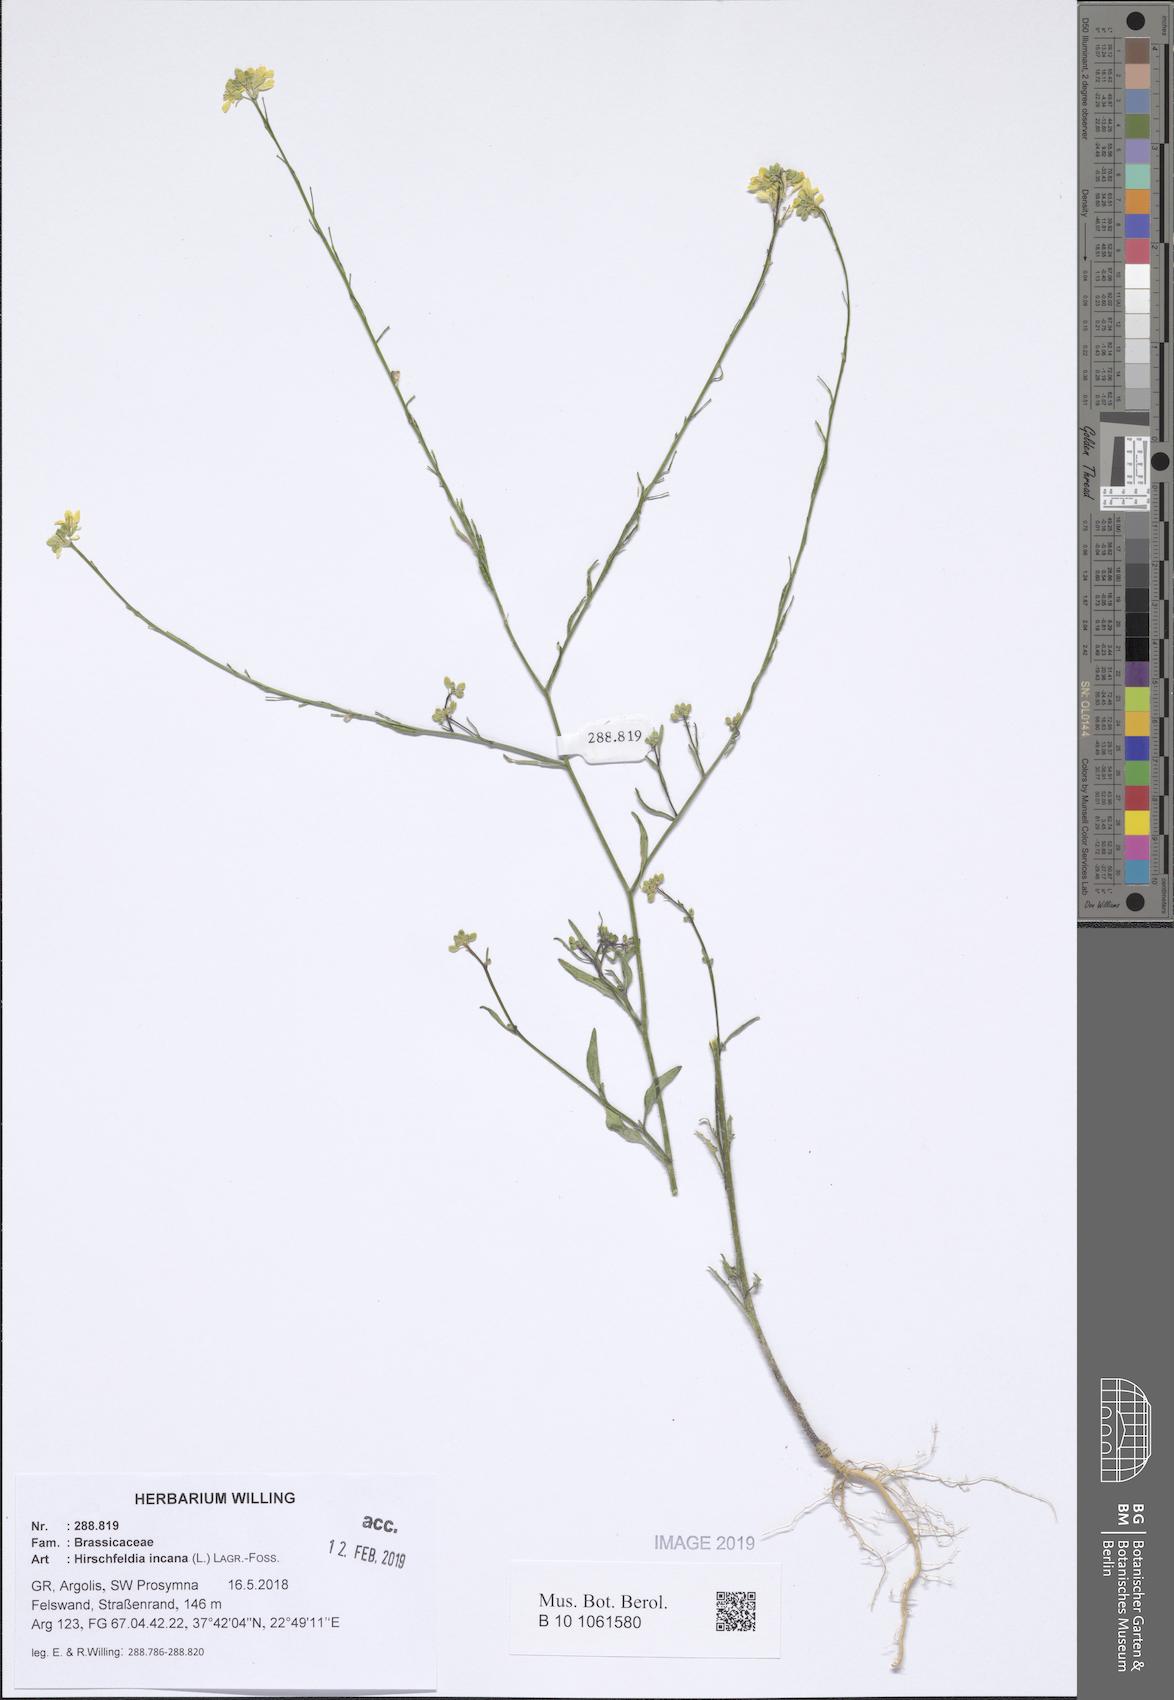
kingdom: Plantae
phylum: Tracheophyta
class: Magnoliopsida
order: Brassicales
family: Brassicaceae
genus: Hirschfeldia
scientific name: Hirschfeldia incana
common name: Hoary mustard
